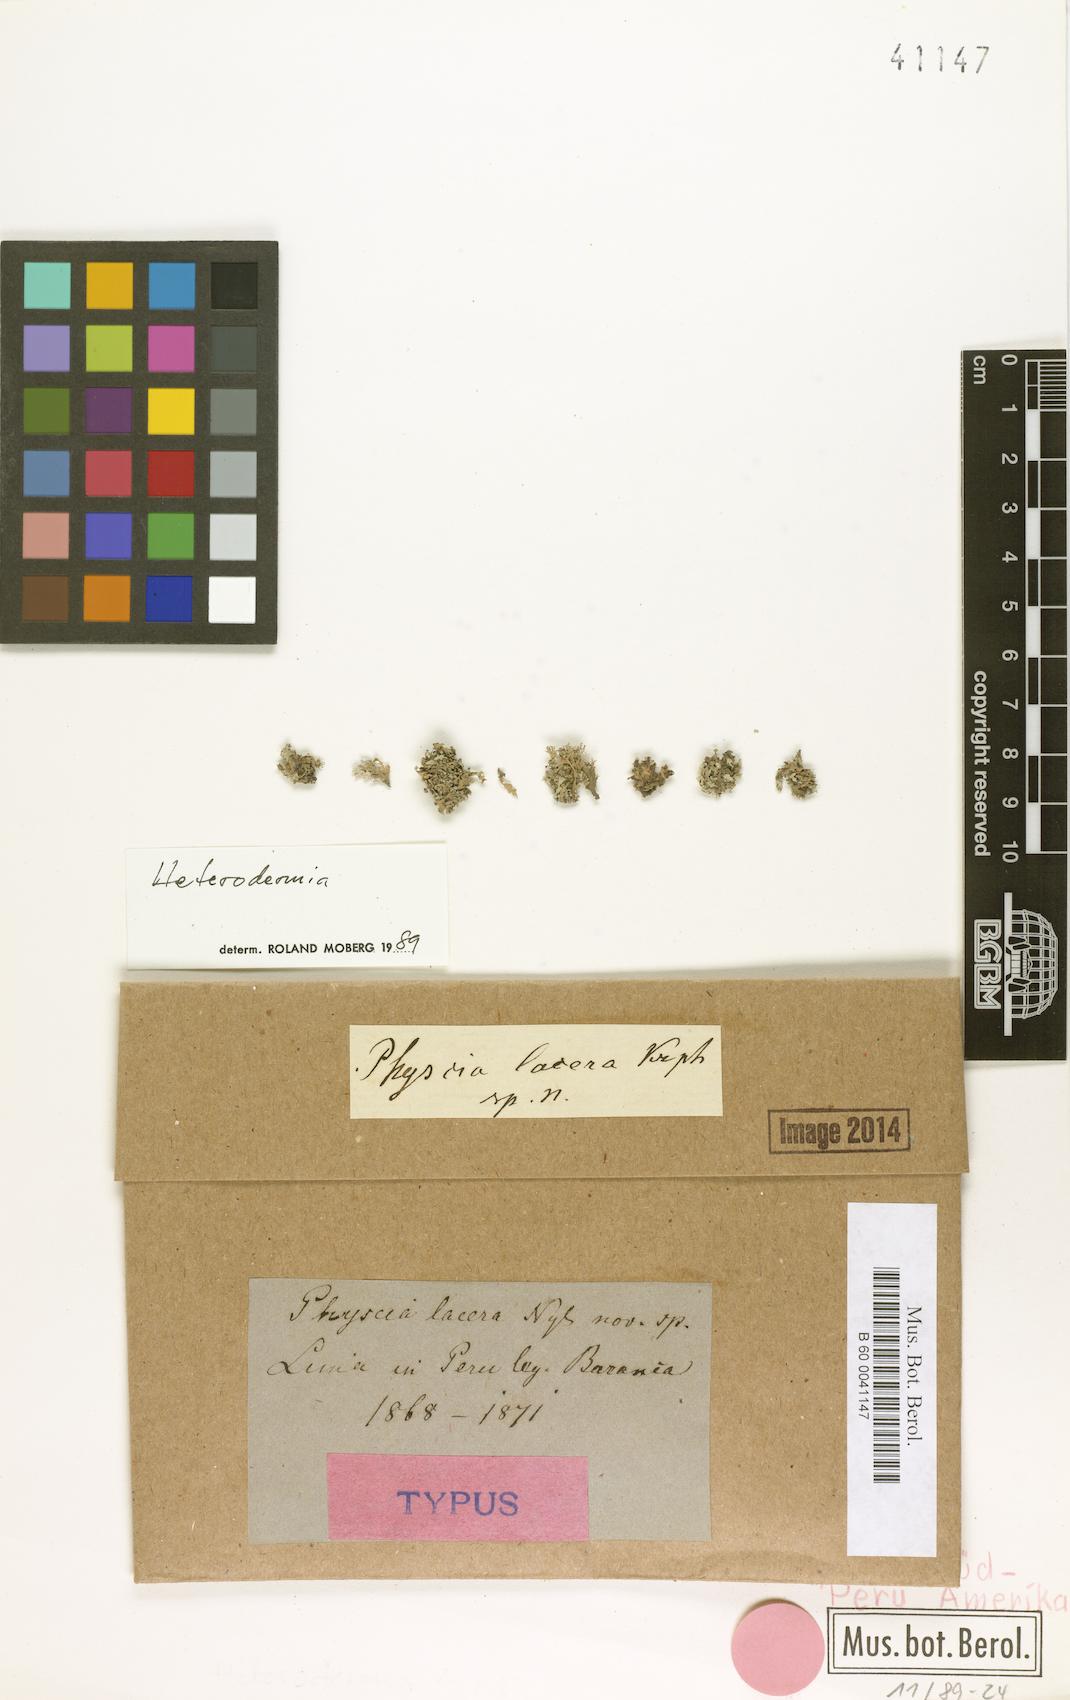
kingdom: Fungi
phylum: Ascomycota
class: Lecanoromycetes
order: Caliciales
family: Physciaceae
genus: Physcia
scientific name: Physcia
